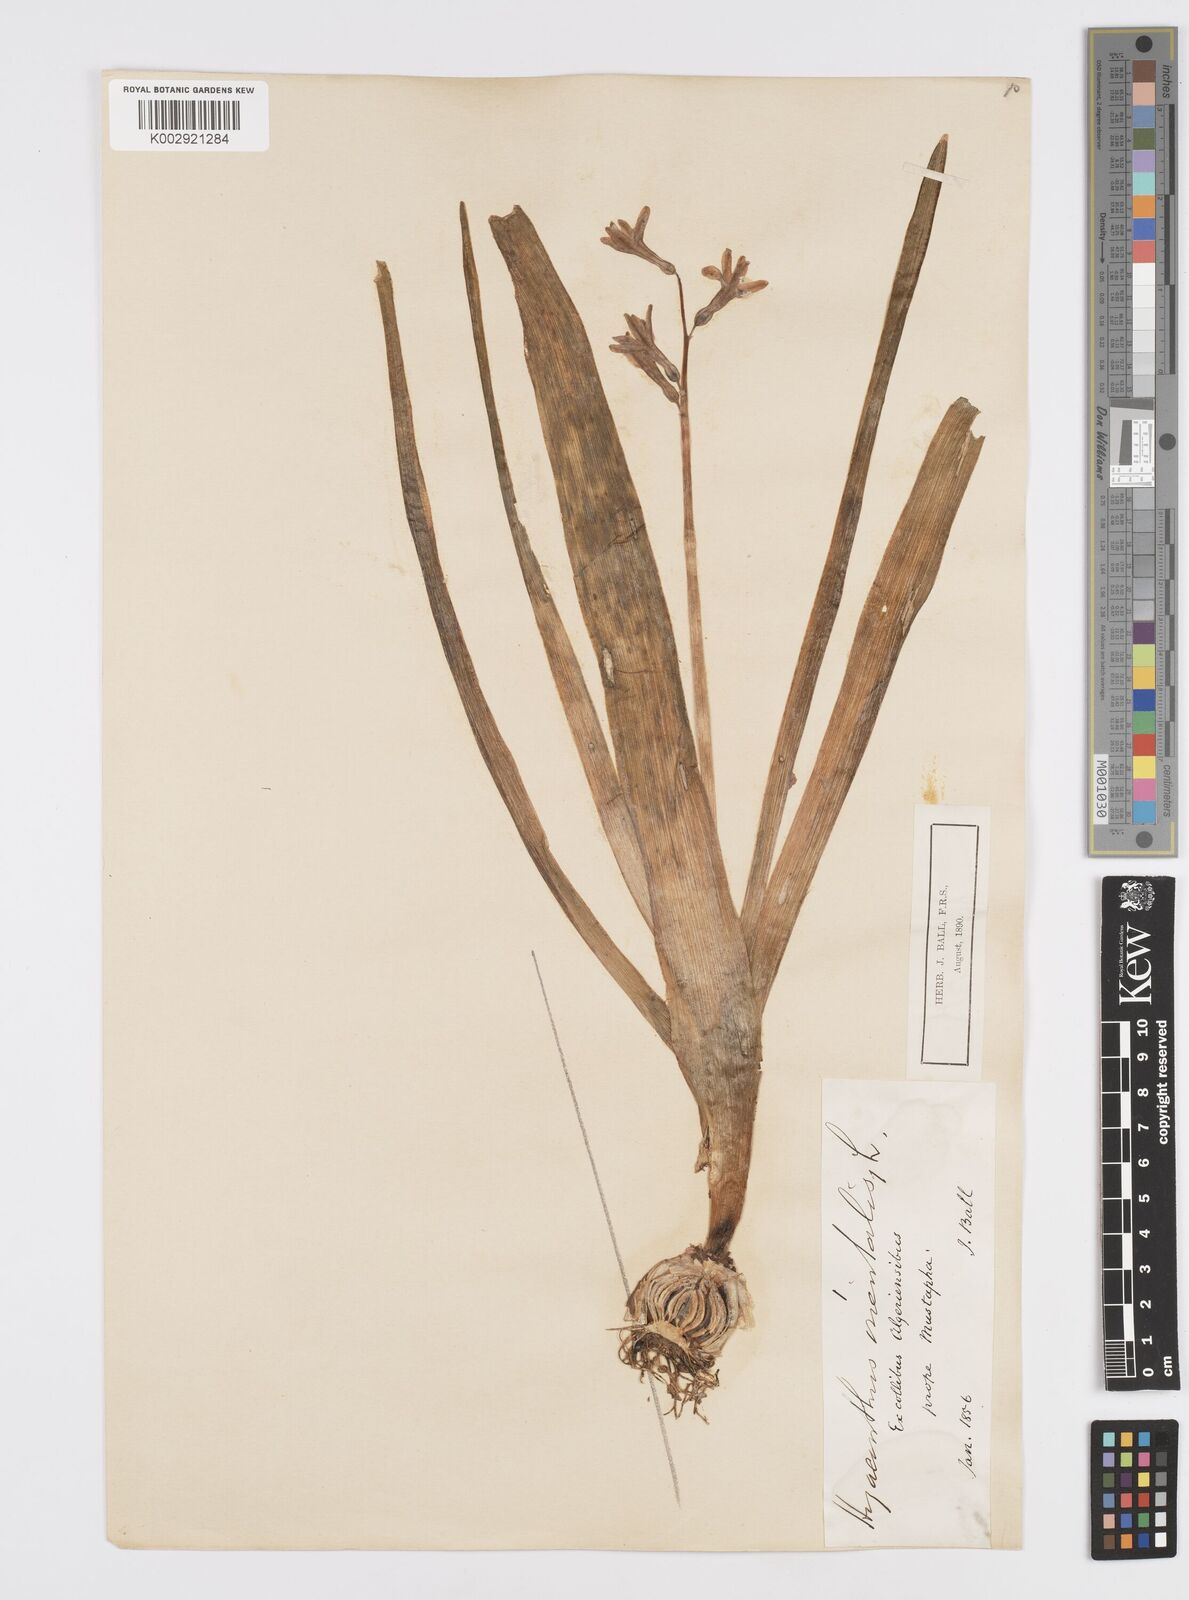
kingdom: Plantae
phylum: Tracheophyta
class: Liliopsida
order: Asparagales
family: Asparagaceae
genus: Hyacinthus
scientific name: Hyacinthus orientalis
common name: Hyacinth
